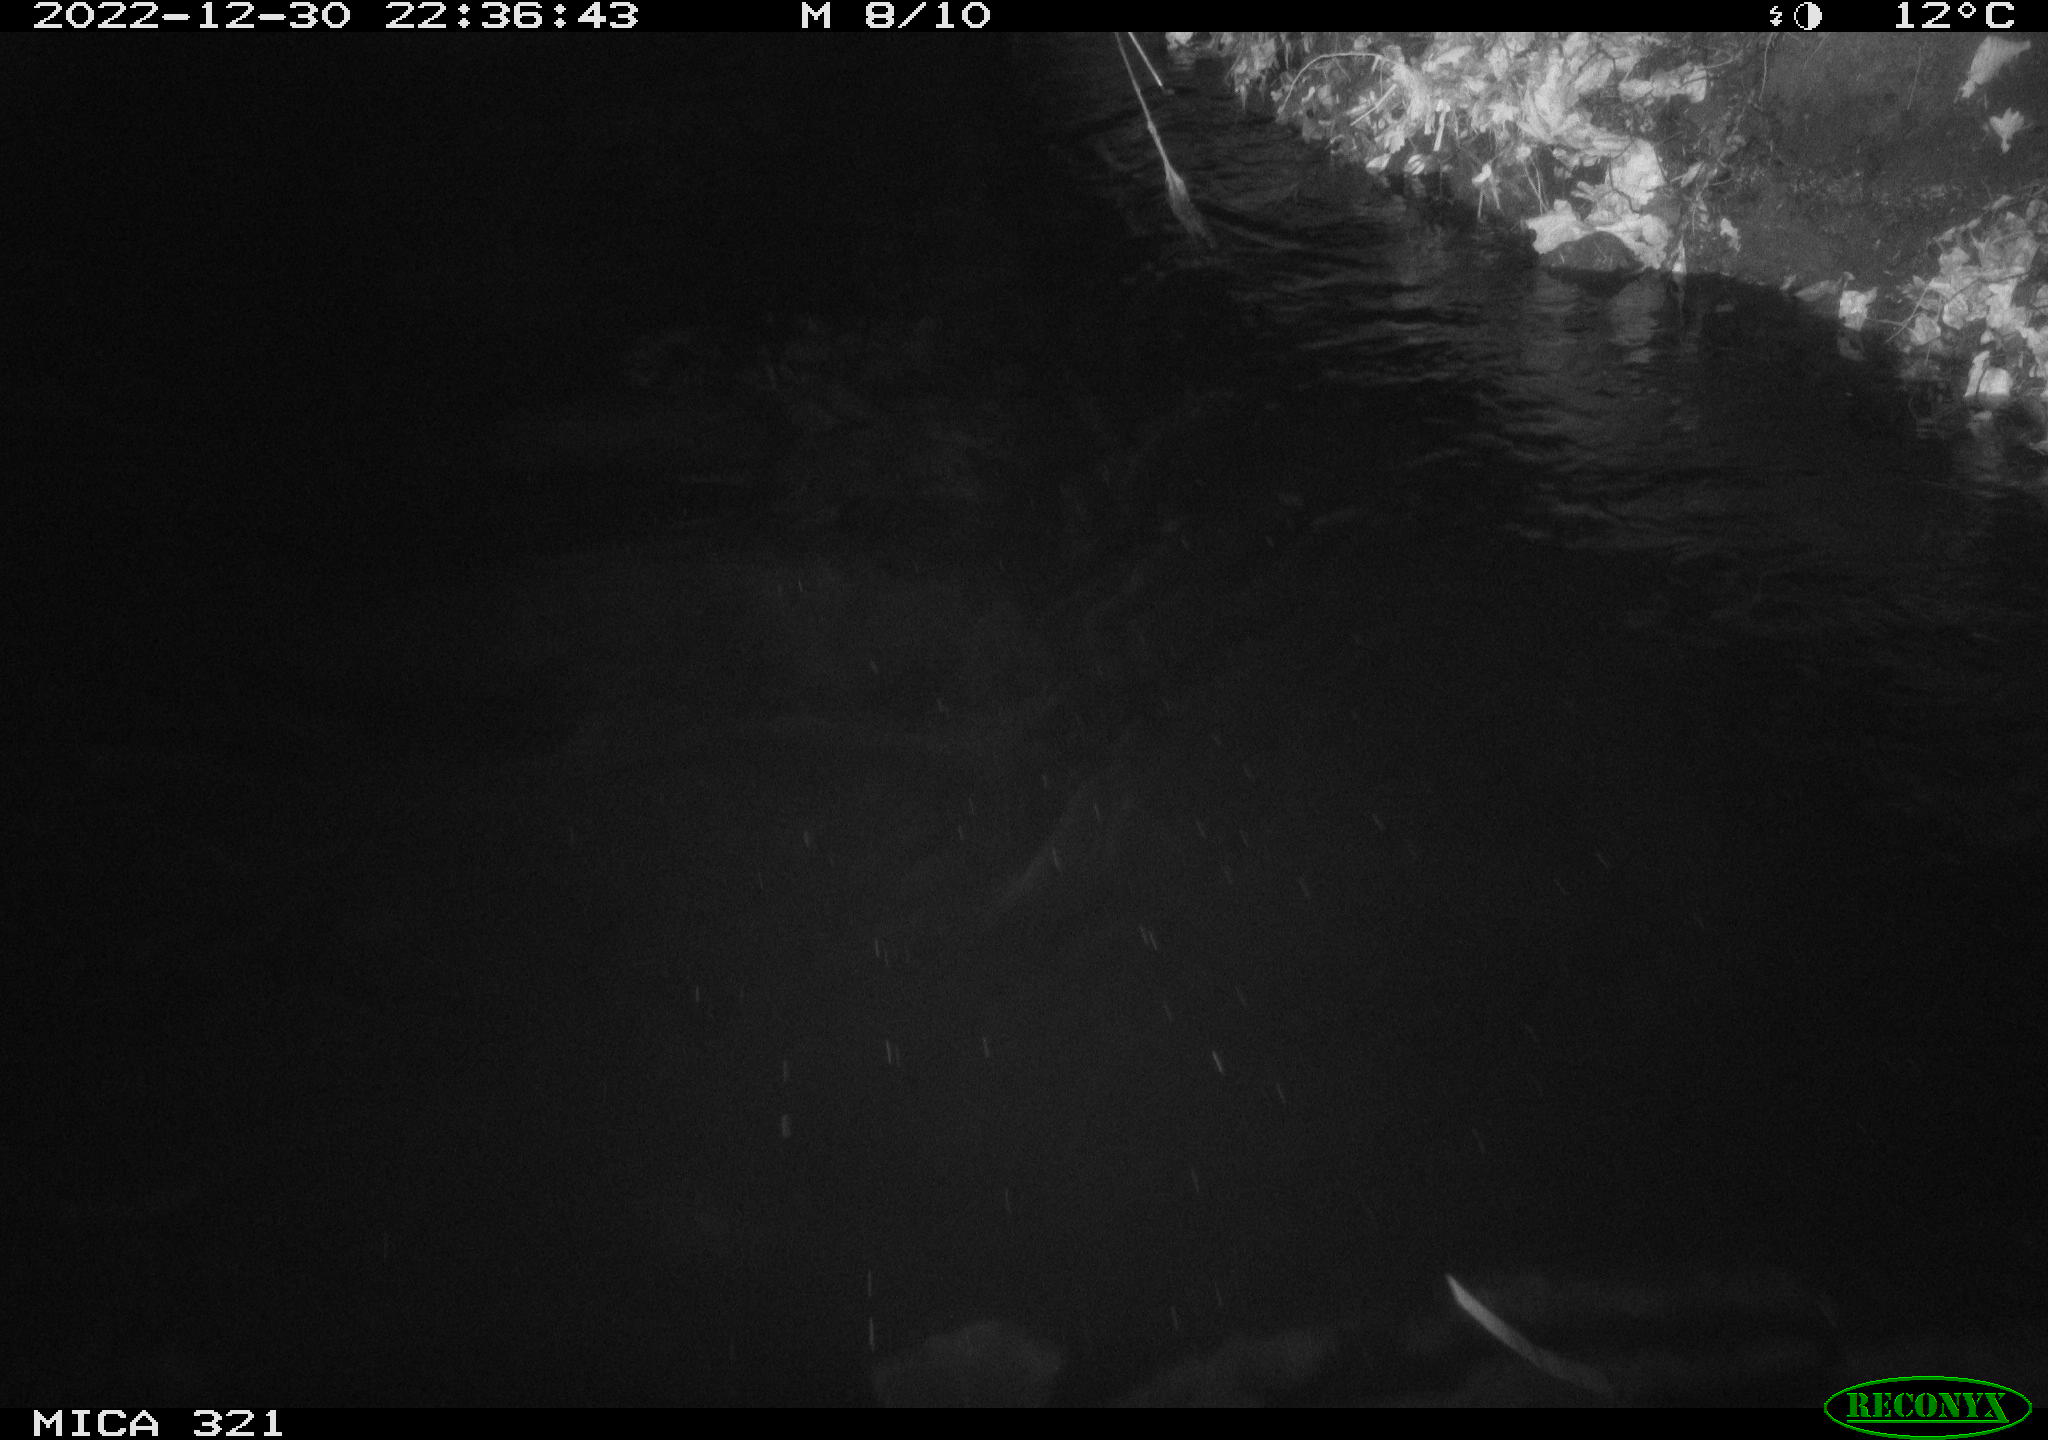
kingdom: Animalia
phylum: Chordata
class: Mammalia
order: Rodentia
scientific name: Rodentia
